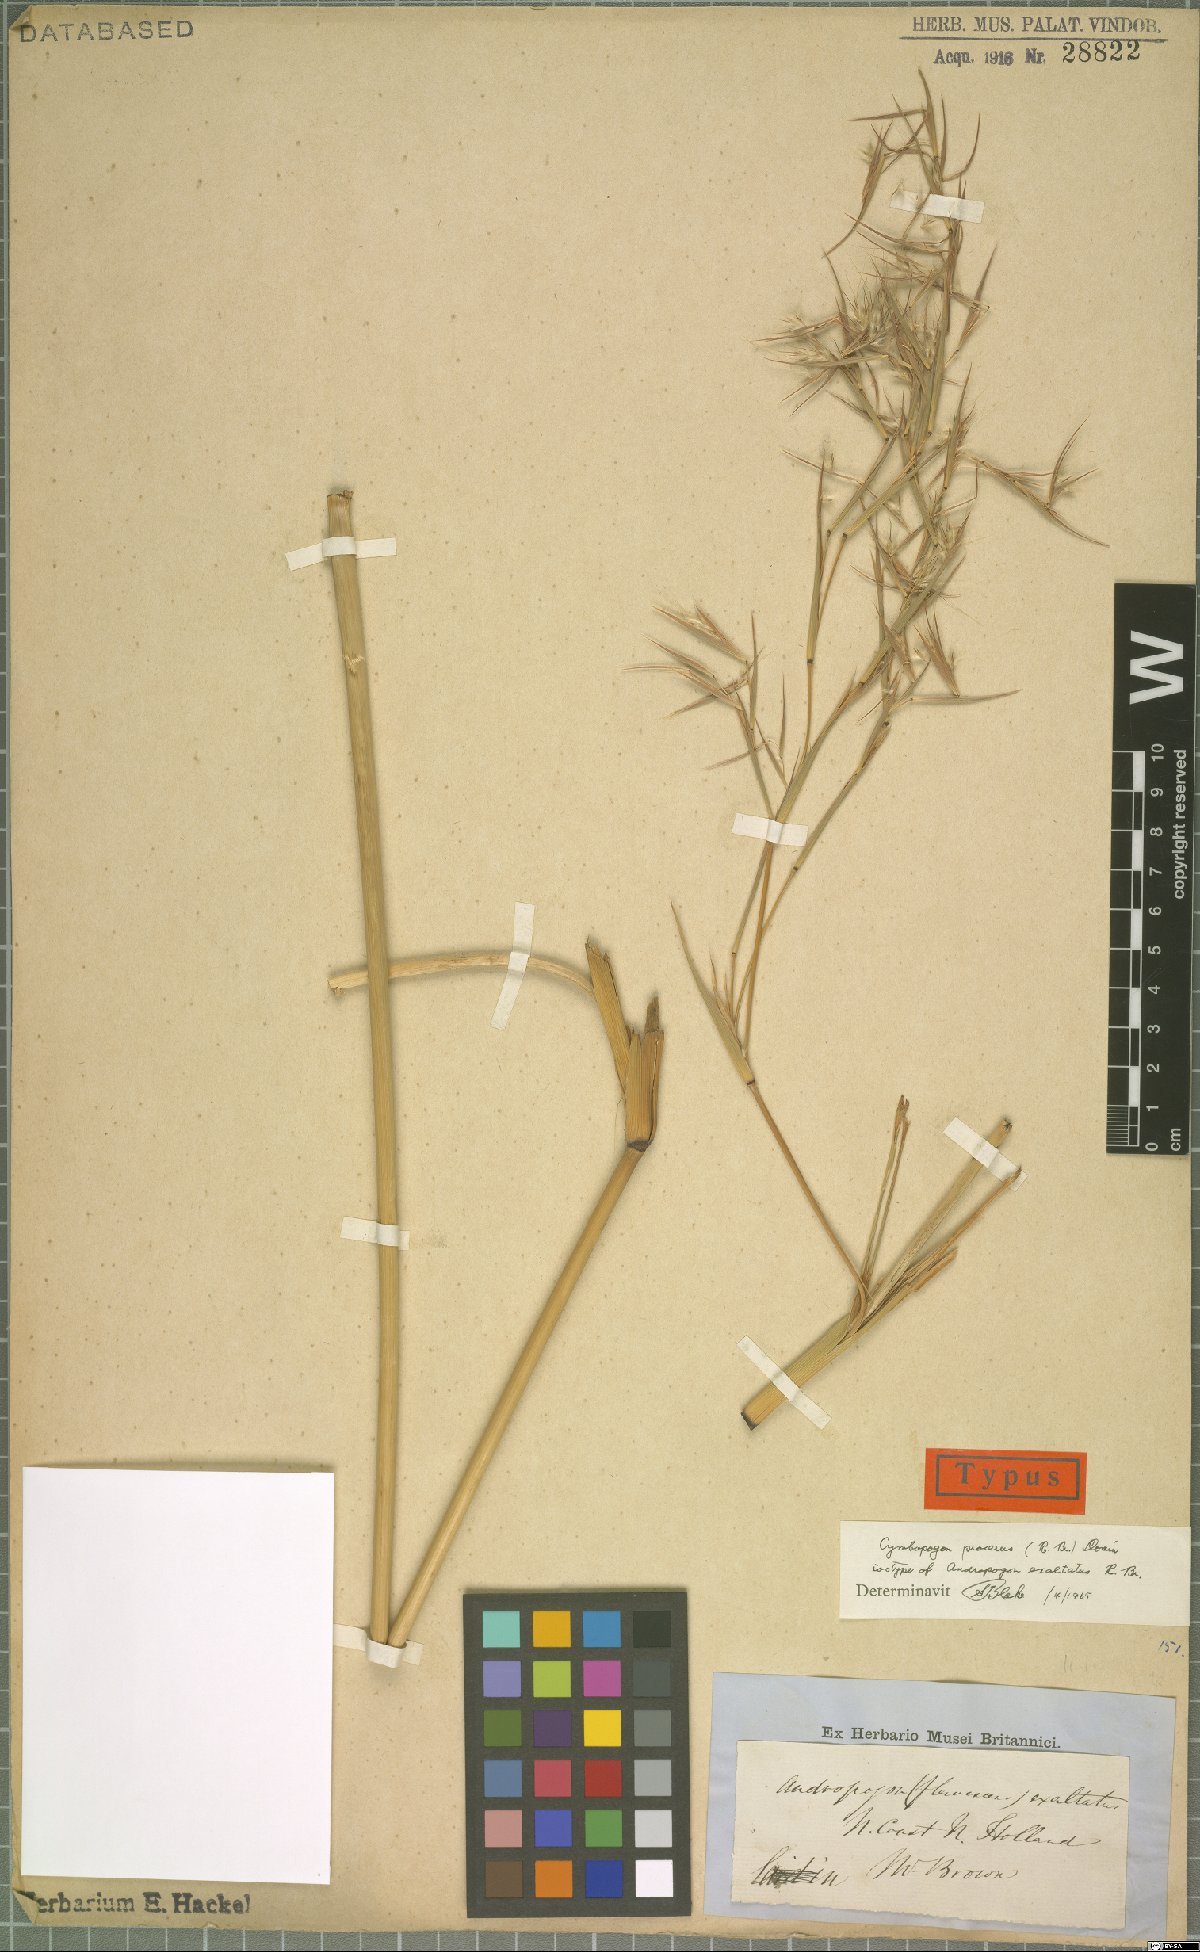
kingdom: Plantae
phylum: Tracheophyta
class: Liliopsida
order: Poales
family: Poaceae
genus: Cymbopogon
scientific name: Cymbopogon procerus
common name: Lemongrass
